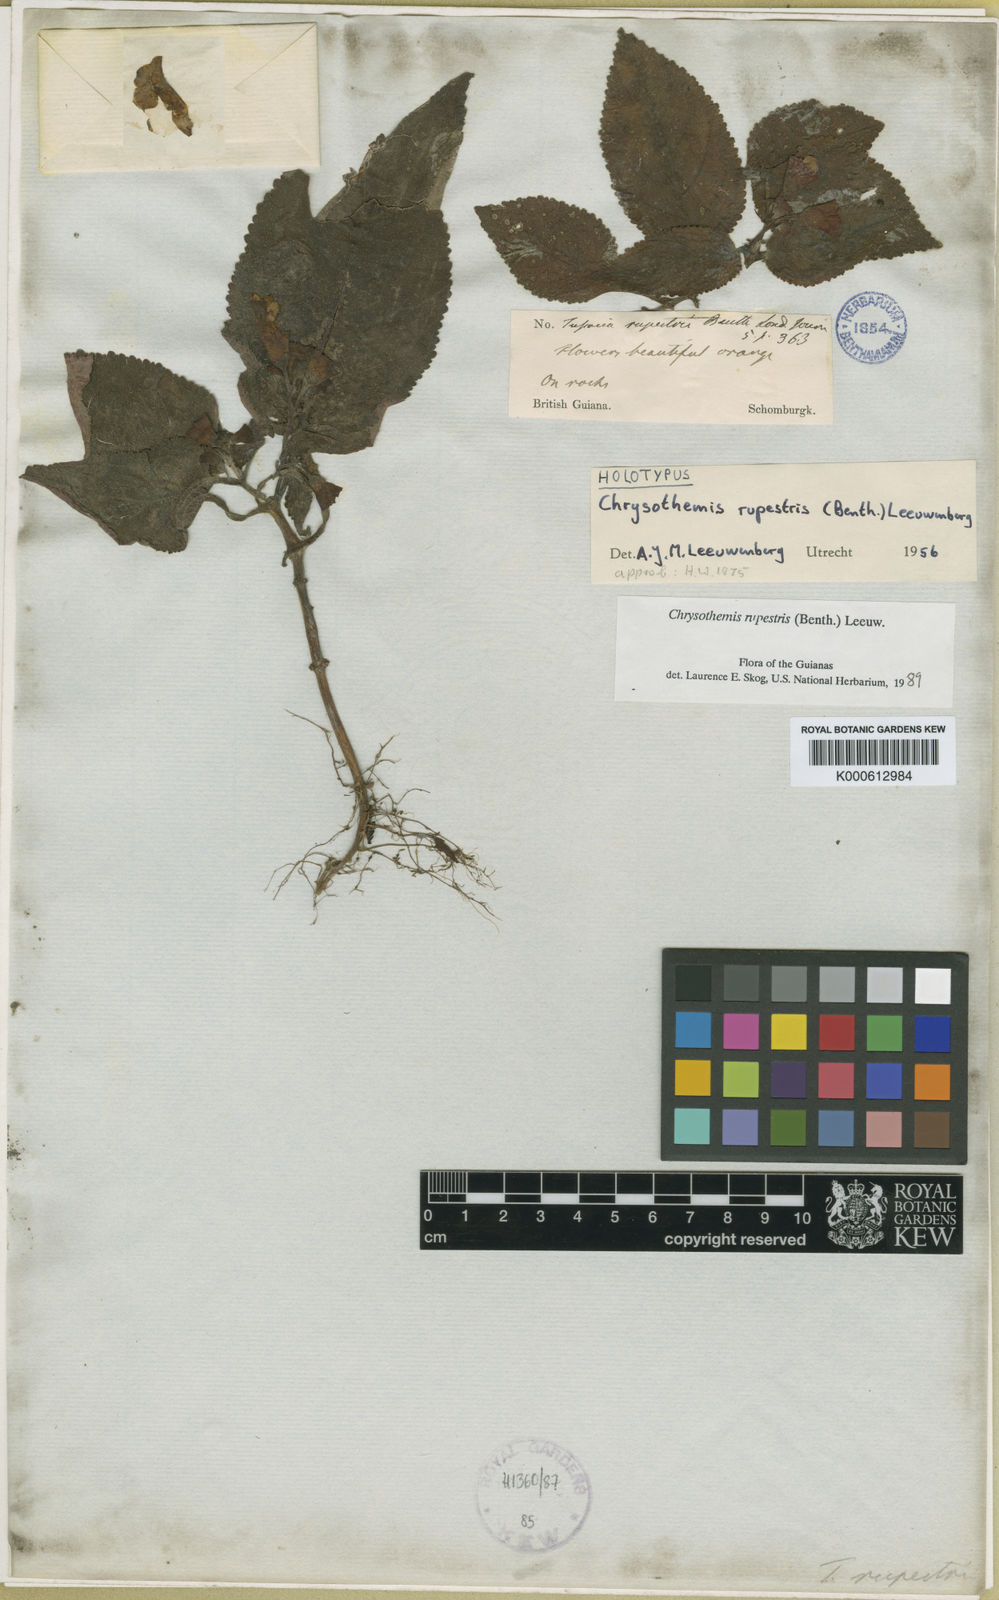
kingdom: Plantae
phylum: Tracheophyta
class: Magnoliopsida
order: Lamiales
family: Gesneriaceae
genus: Chrysothemis
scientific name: Chrysothemis rupestris
